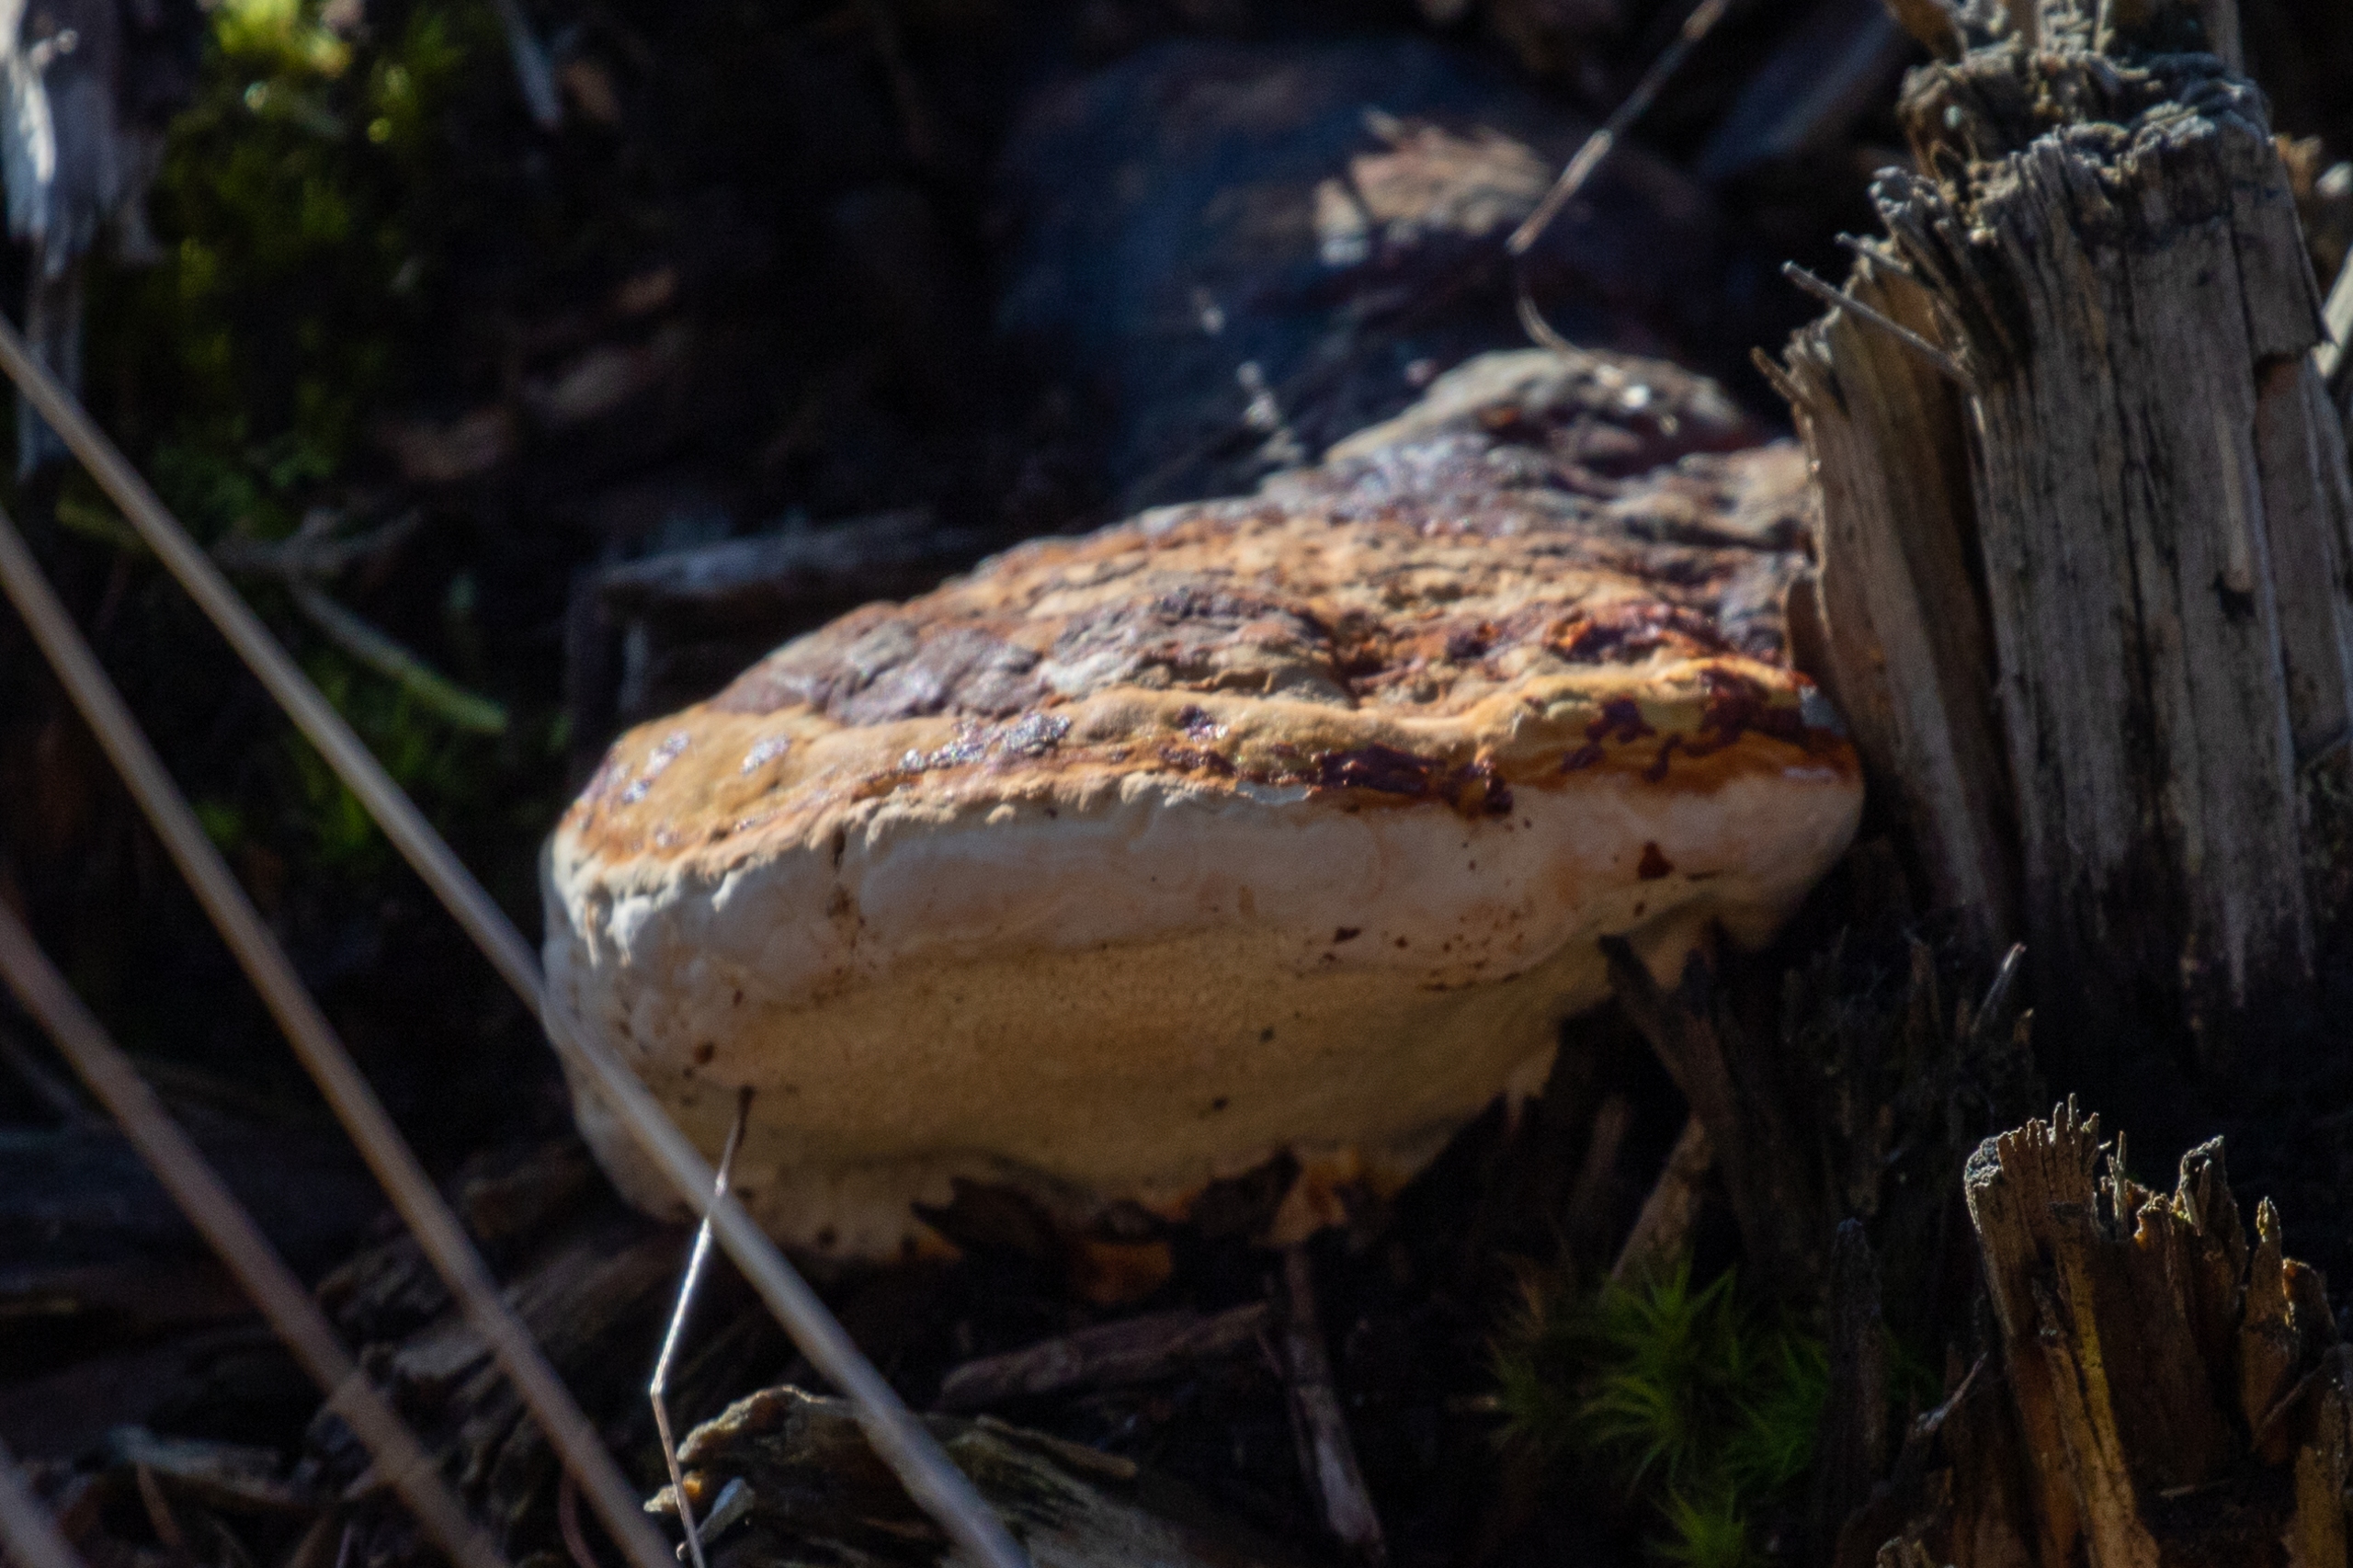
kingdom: Fungi
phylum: Basidiomycota
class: Agaricomycetes
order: Polyporales
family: Fomitopsidaceae
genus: Fomitopsis
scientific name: Fomitopsis pinicola
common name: Randbæltet hovporesvamp
